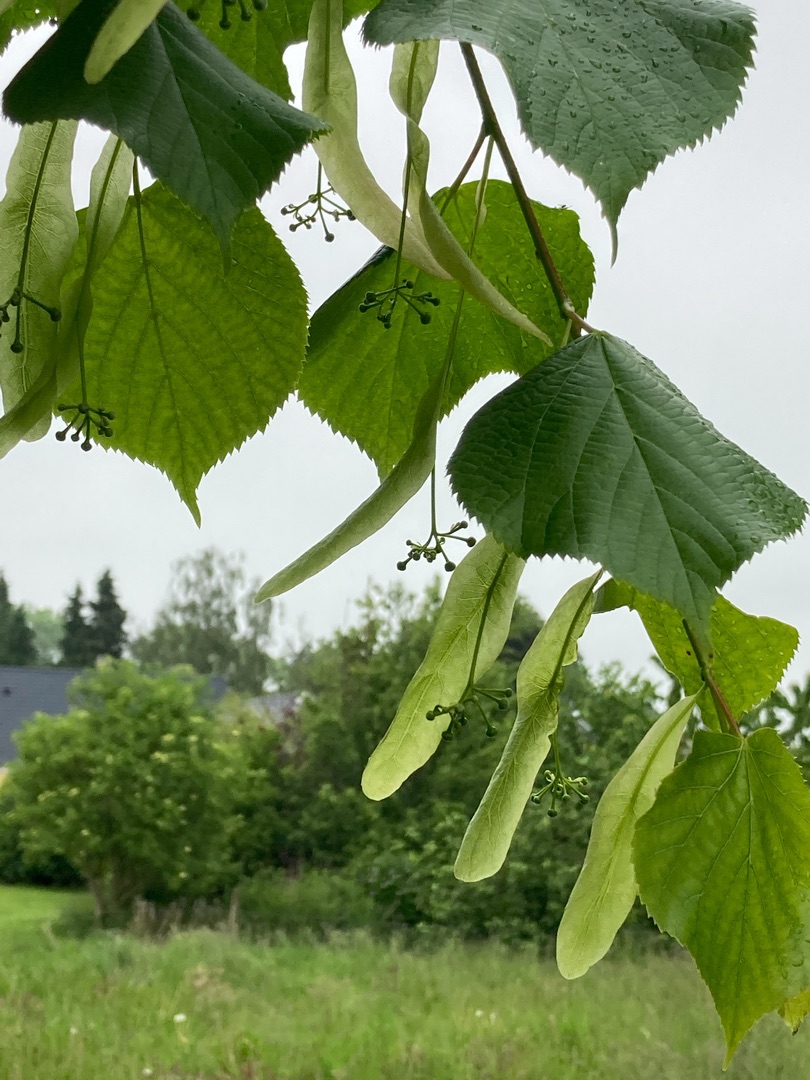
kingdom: Plantae
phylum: Tracheophyta
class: Magnoliopsida
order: Malvales
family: Malvaceae
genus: Tilia
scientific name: Tilia europaea
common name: Park-lind
